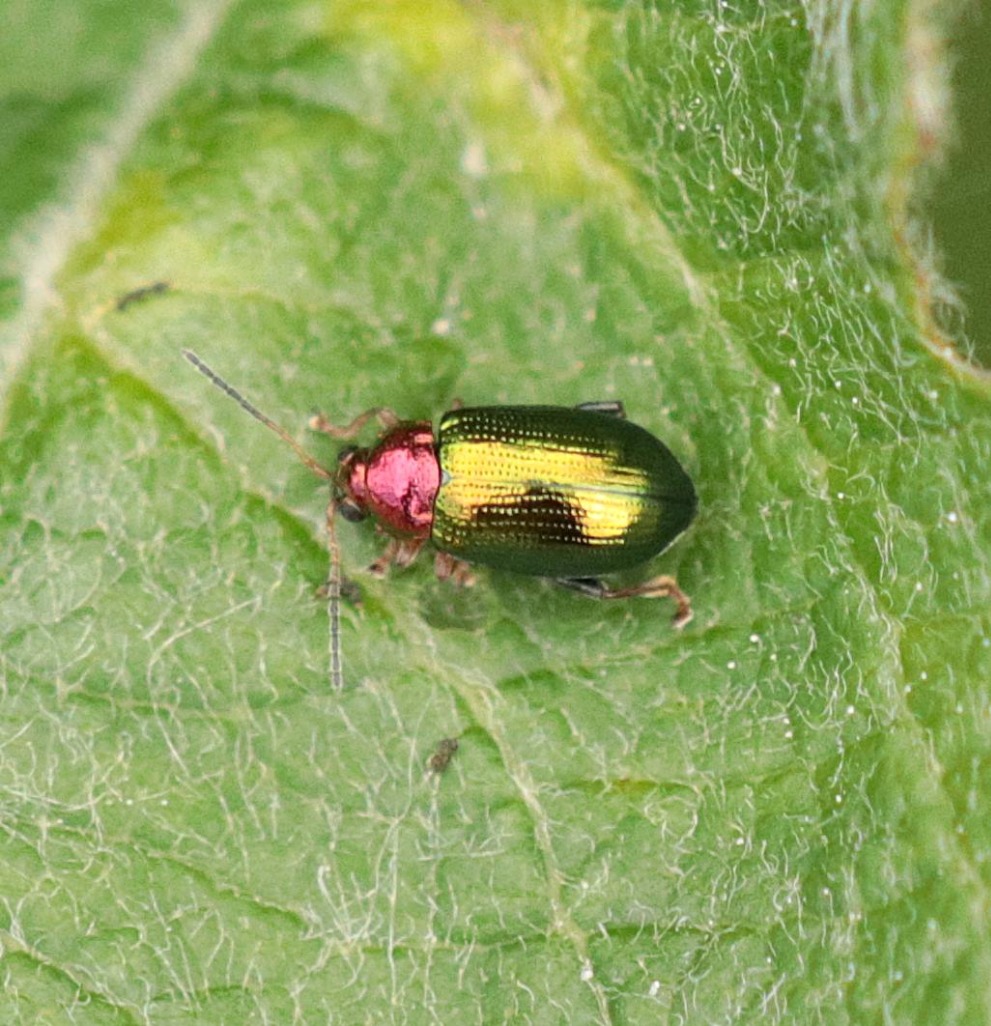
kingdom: Animalia
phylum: Arthropoda
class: Insecta
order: Coleoptera
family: Chrysomelidae
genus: Crepidodera
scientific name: Crepidodera aurata
